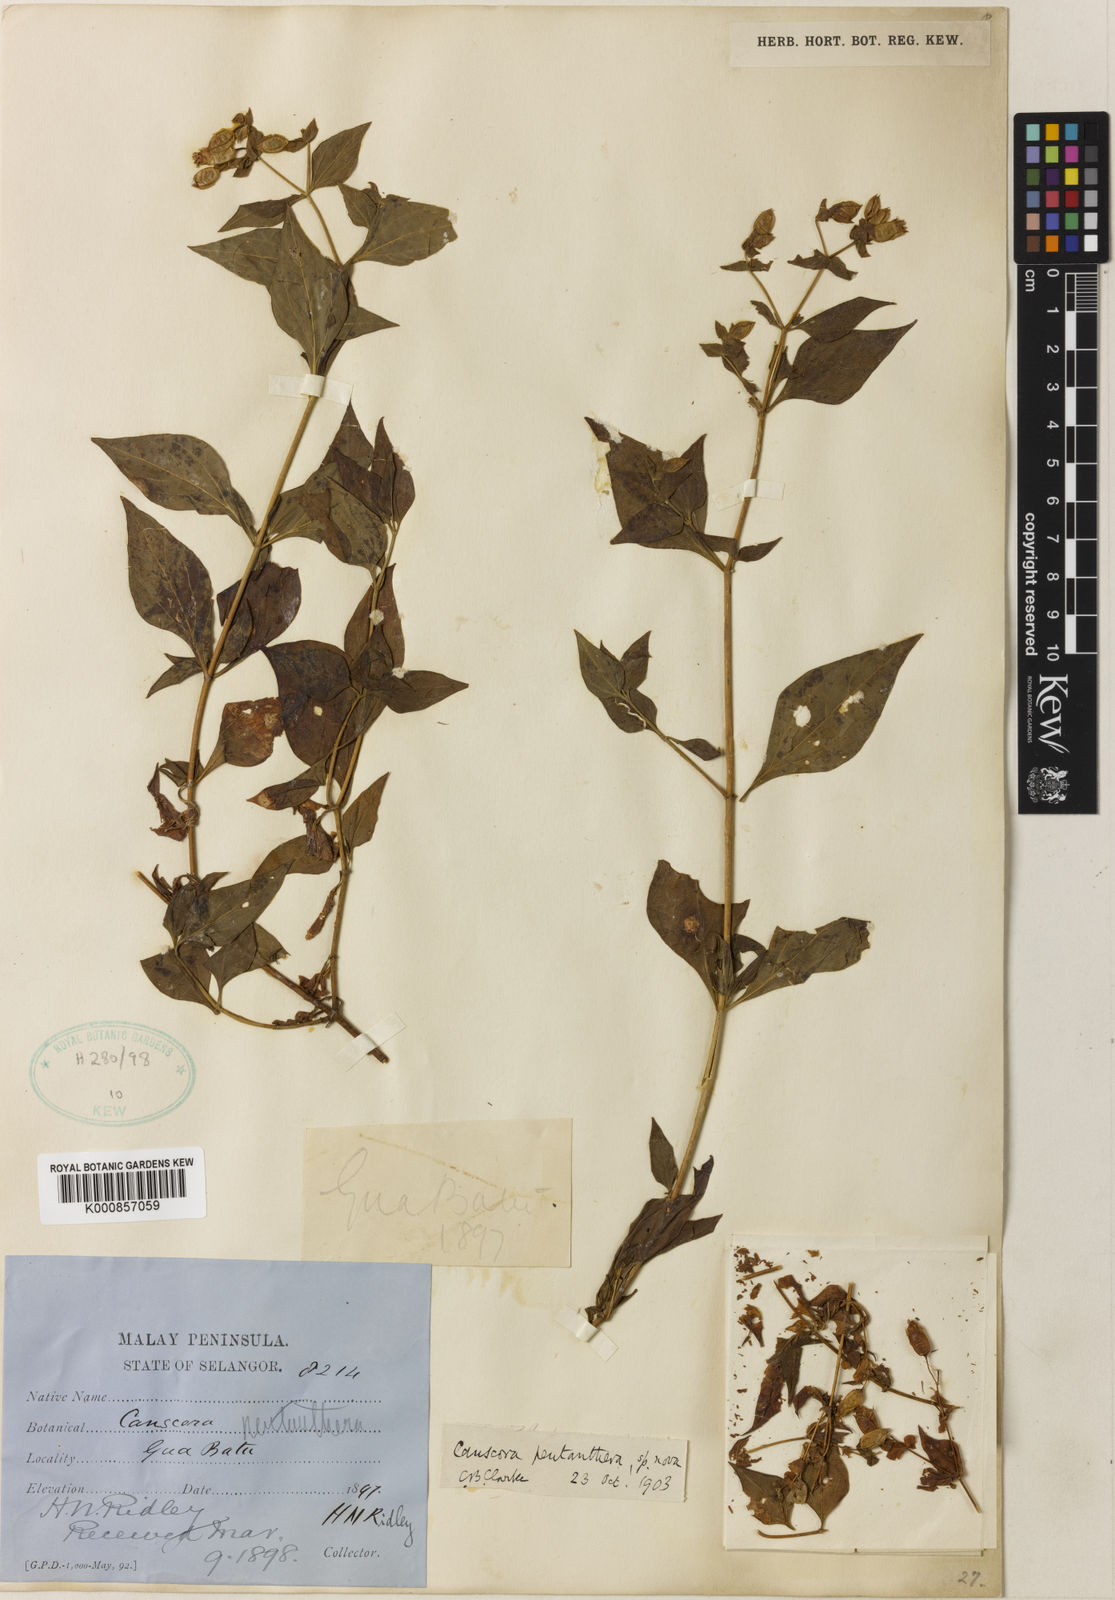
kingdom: Plantae
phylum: Tracheophyta
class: Magnoliopsida
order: Gentianales
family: Gentianaceae
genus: Cracosna
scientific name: Cracosna
